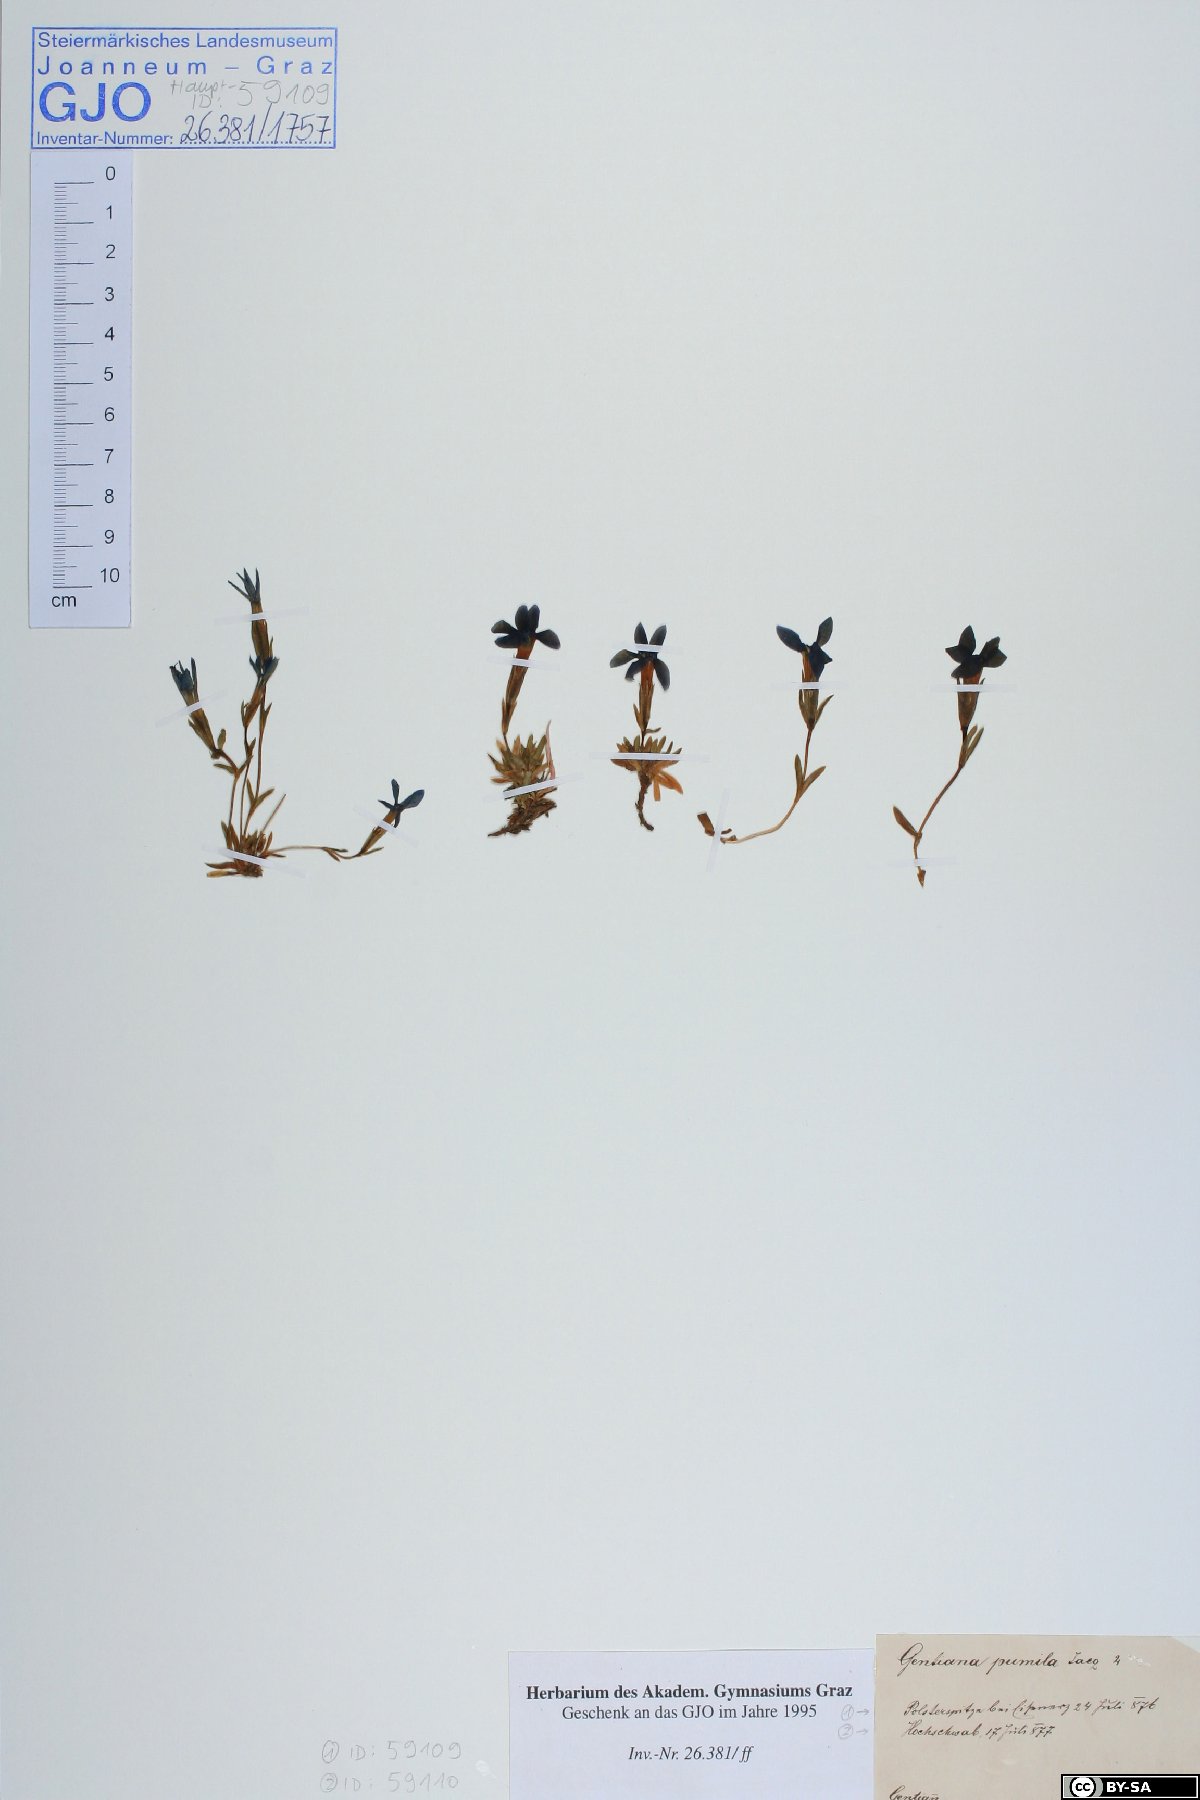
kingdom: Plantae
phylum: Tracheophyta
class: Magnoliopsida
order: Gentianales
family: Gentianaceae
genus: Gentiana
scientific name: Gentiana pumila
